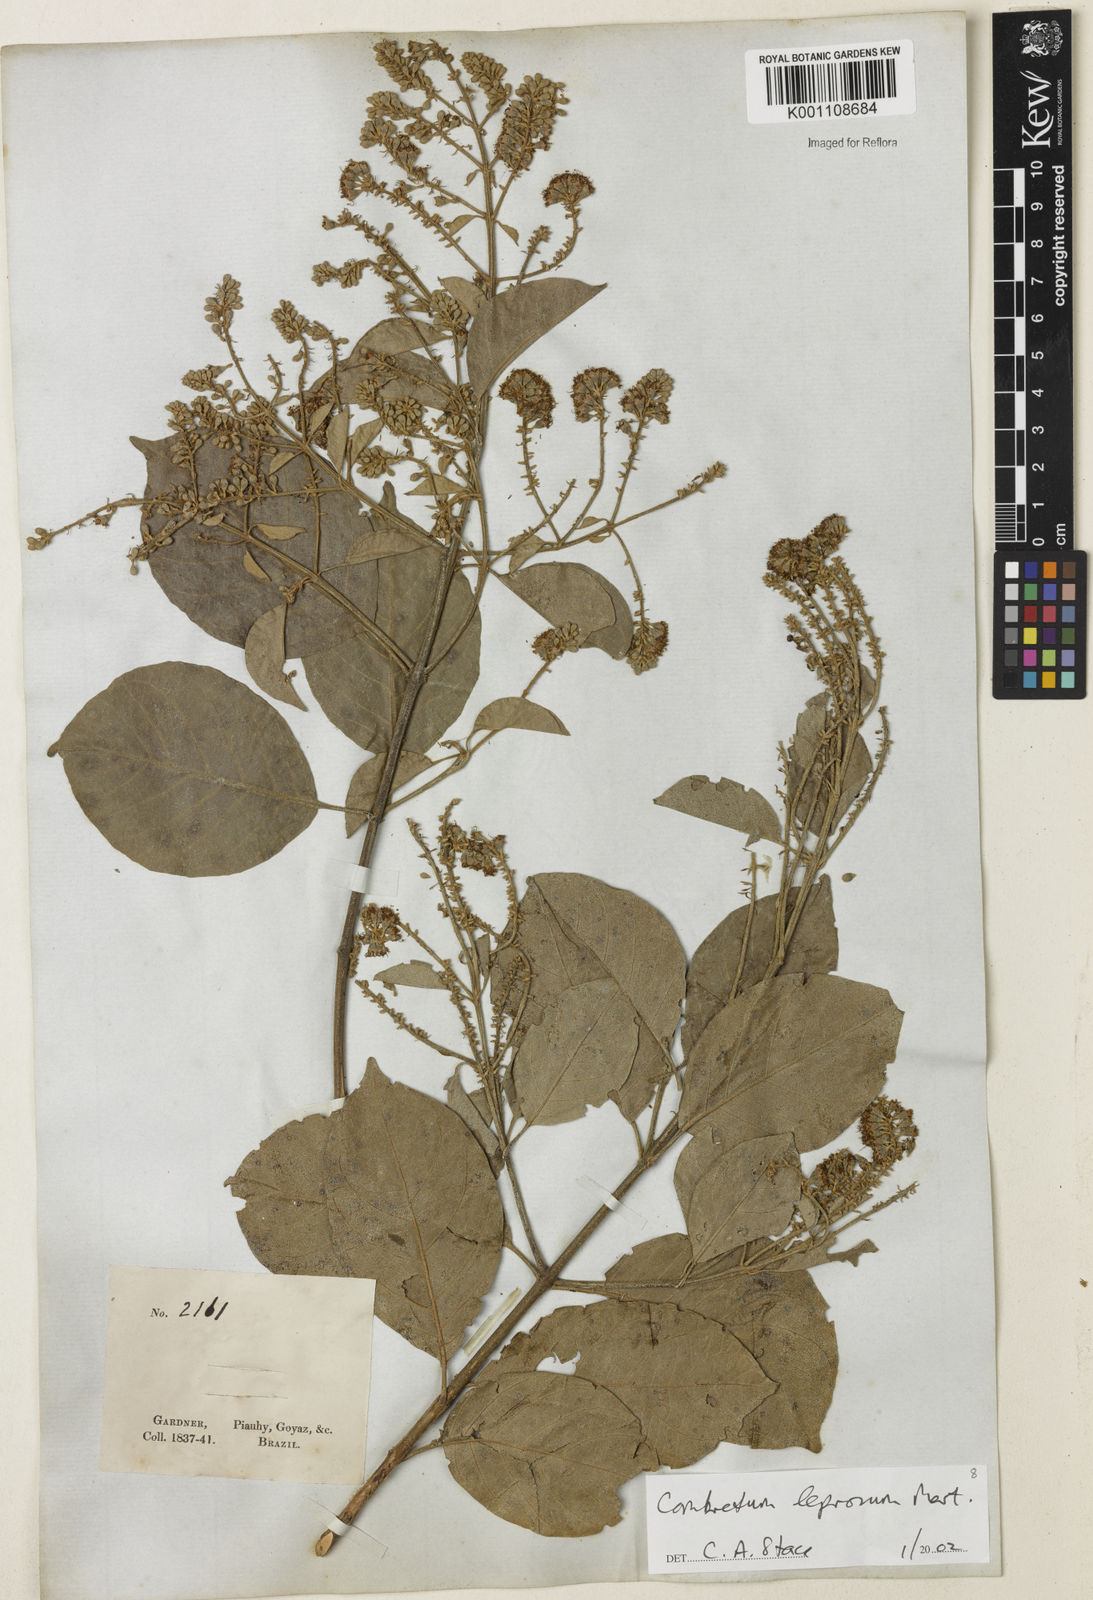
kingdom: Plantae
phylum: Tracheophyta
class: Magnoliopsida
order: Myrtales
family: Combretaceae
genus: Combretum
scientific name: Combretum leprosum
